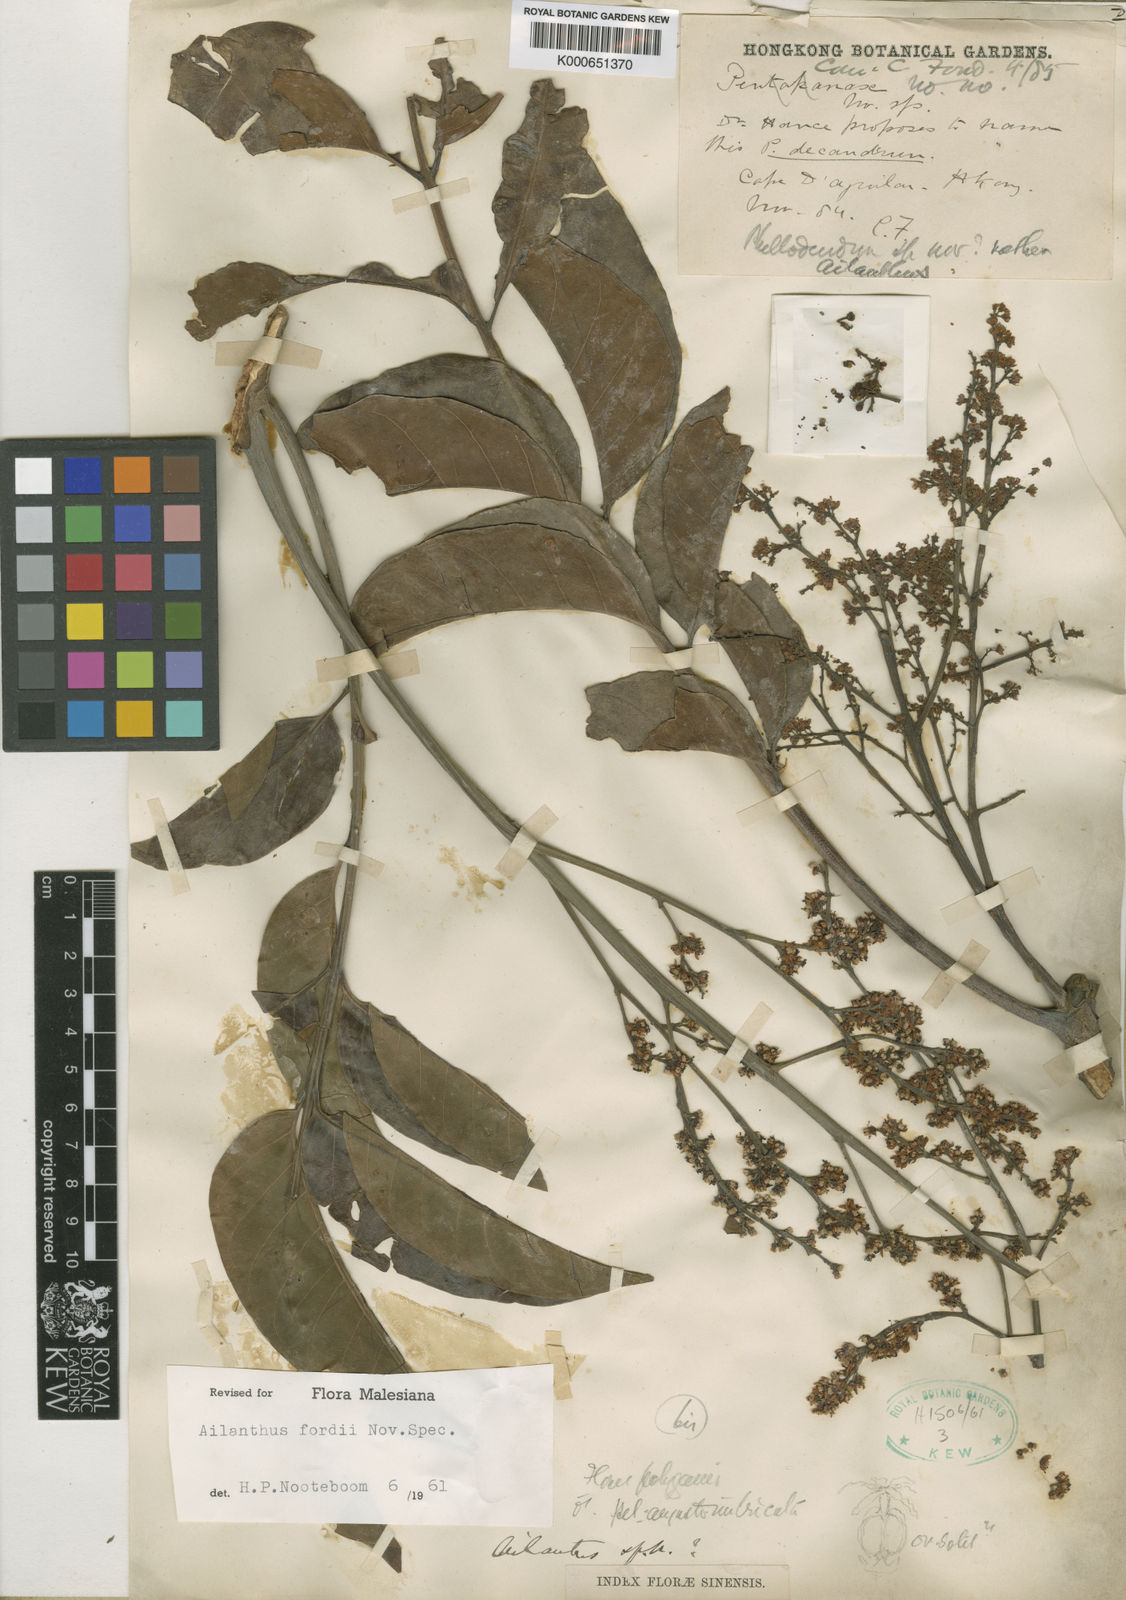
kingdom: Plantae
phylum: Tracheophyta
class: Magnoliopsida
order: Sapindales
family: Simaroubaceae
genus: Ailanthus
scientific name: Ailanthus fordii
